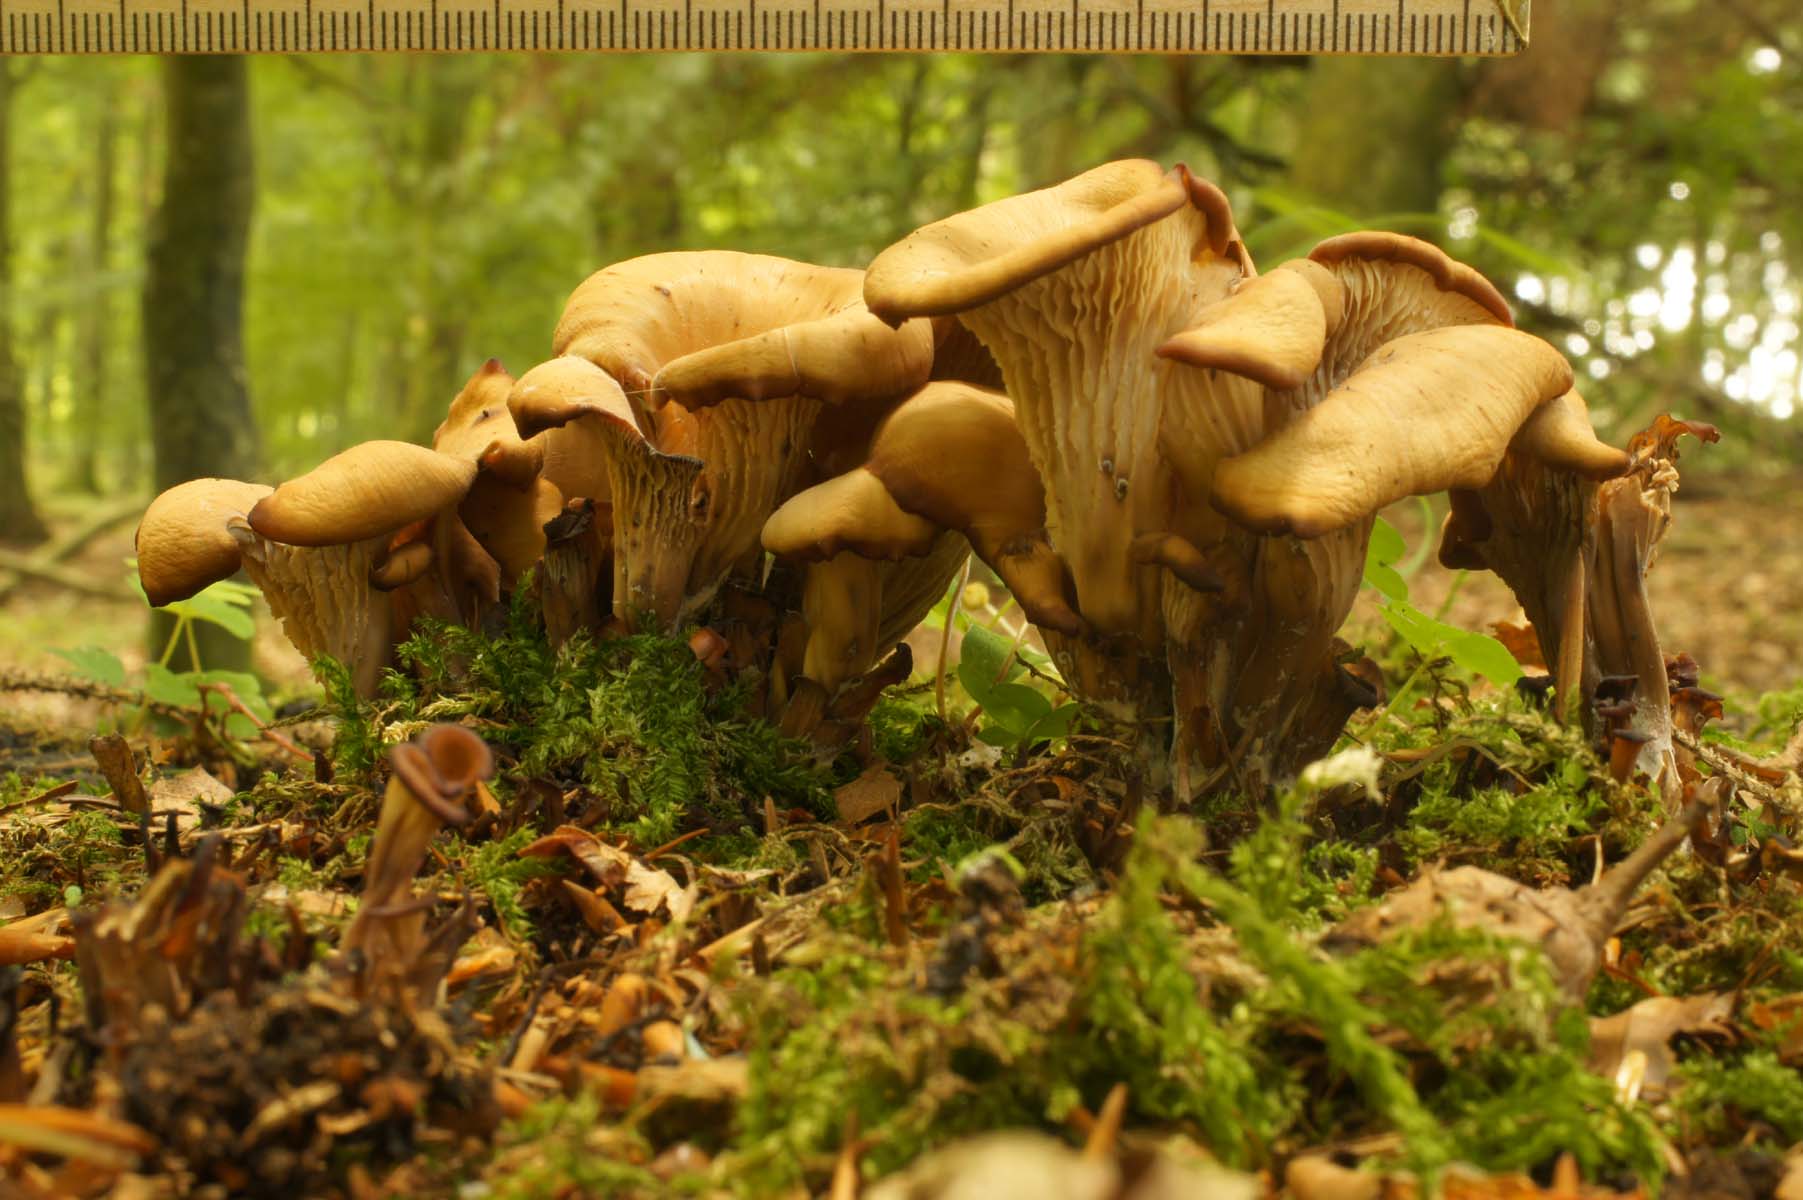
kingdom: Fungi
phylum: Basidiomycota
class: Agaricomycetes
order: Russulales
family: Auriscalpiaceae
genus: Lentinellus
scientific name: Lentinellus cochleatus
